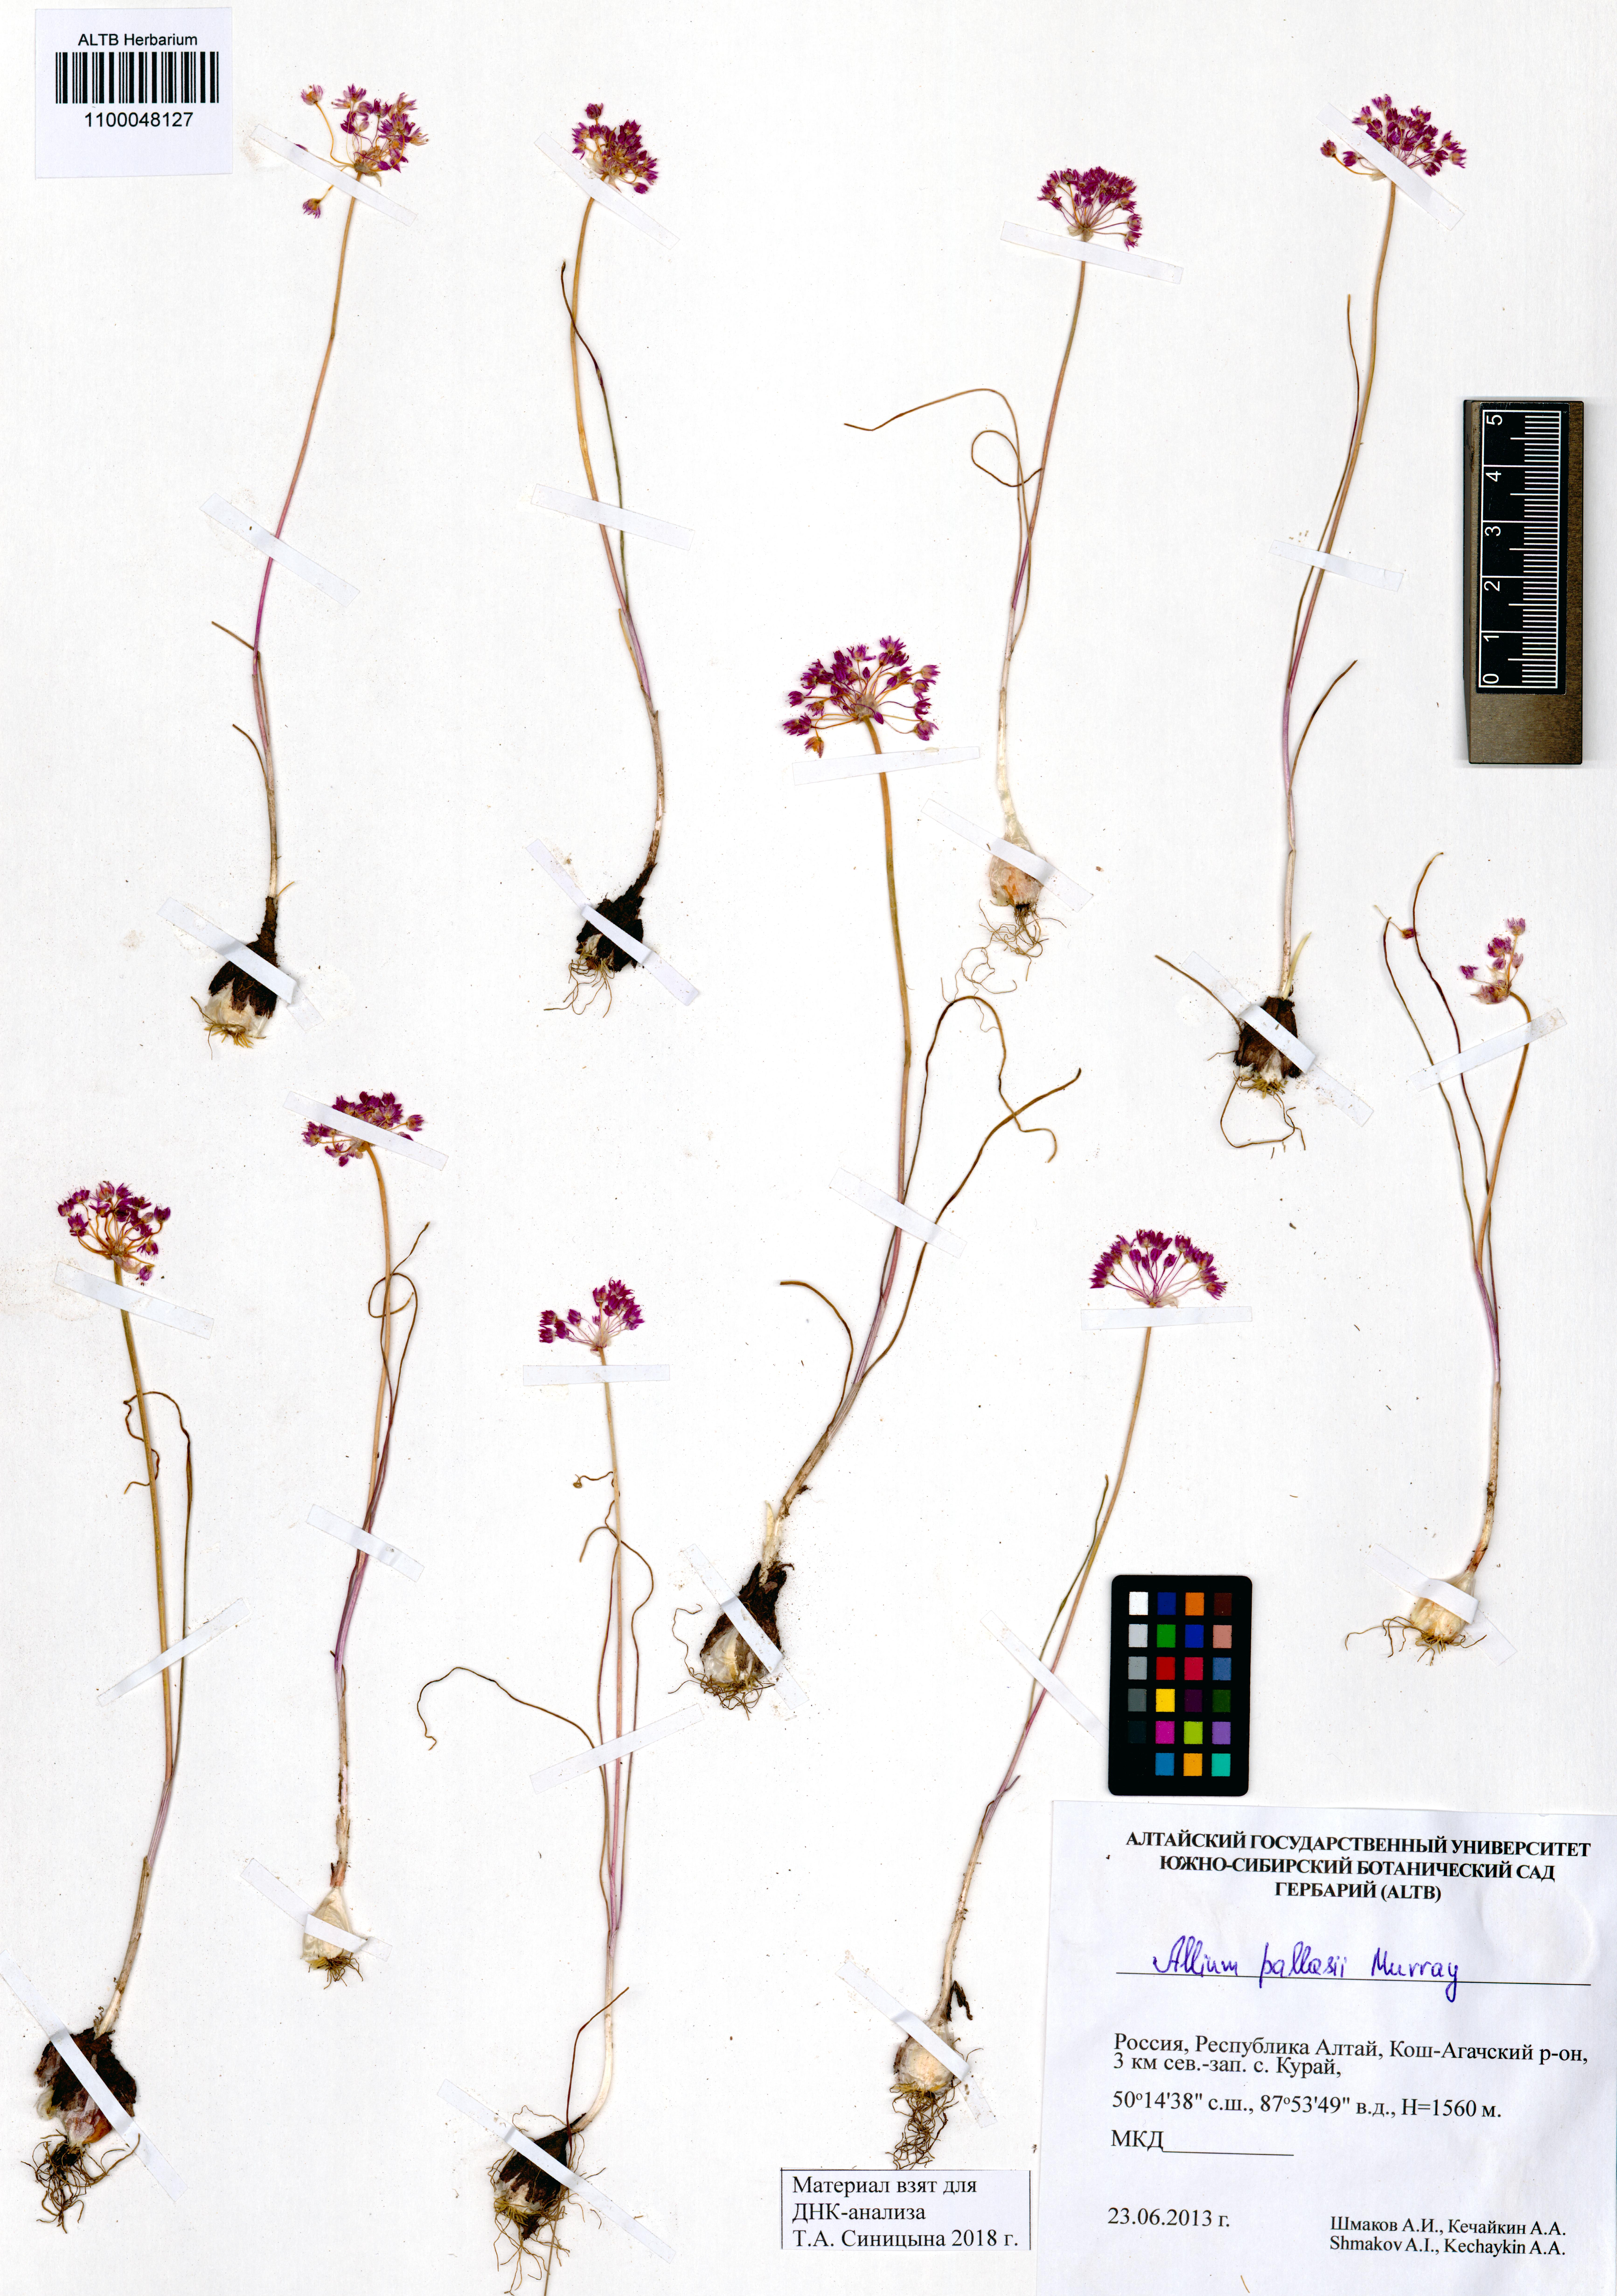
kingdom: Plantae
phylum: Tracheophyta
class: Liliopsida
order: Asparagales
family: Amaryllidaceae
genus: Allium
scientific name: Allium pallasii
